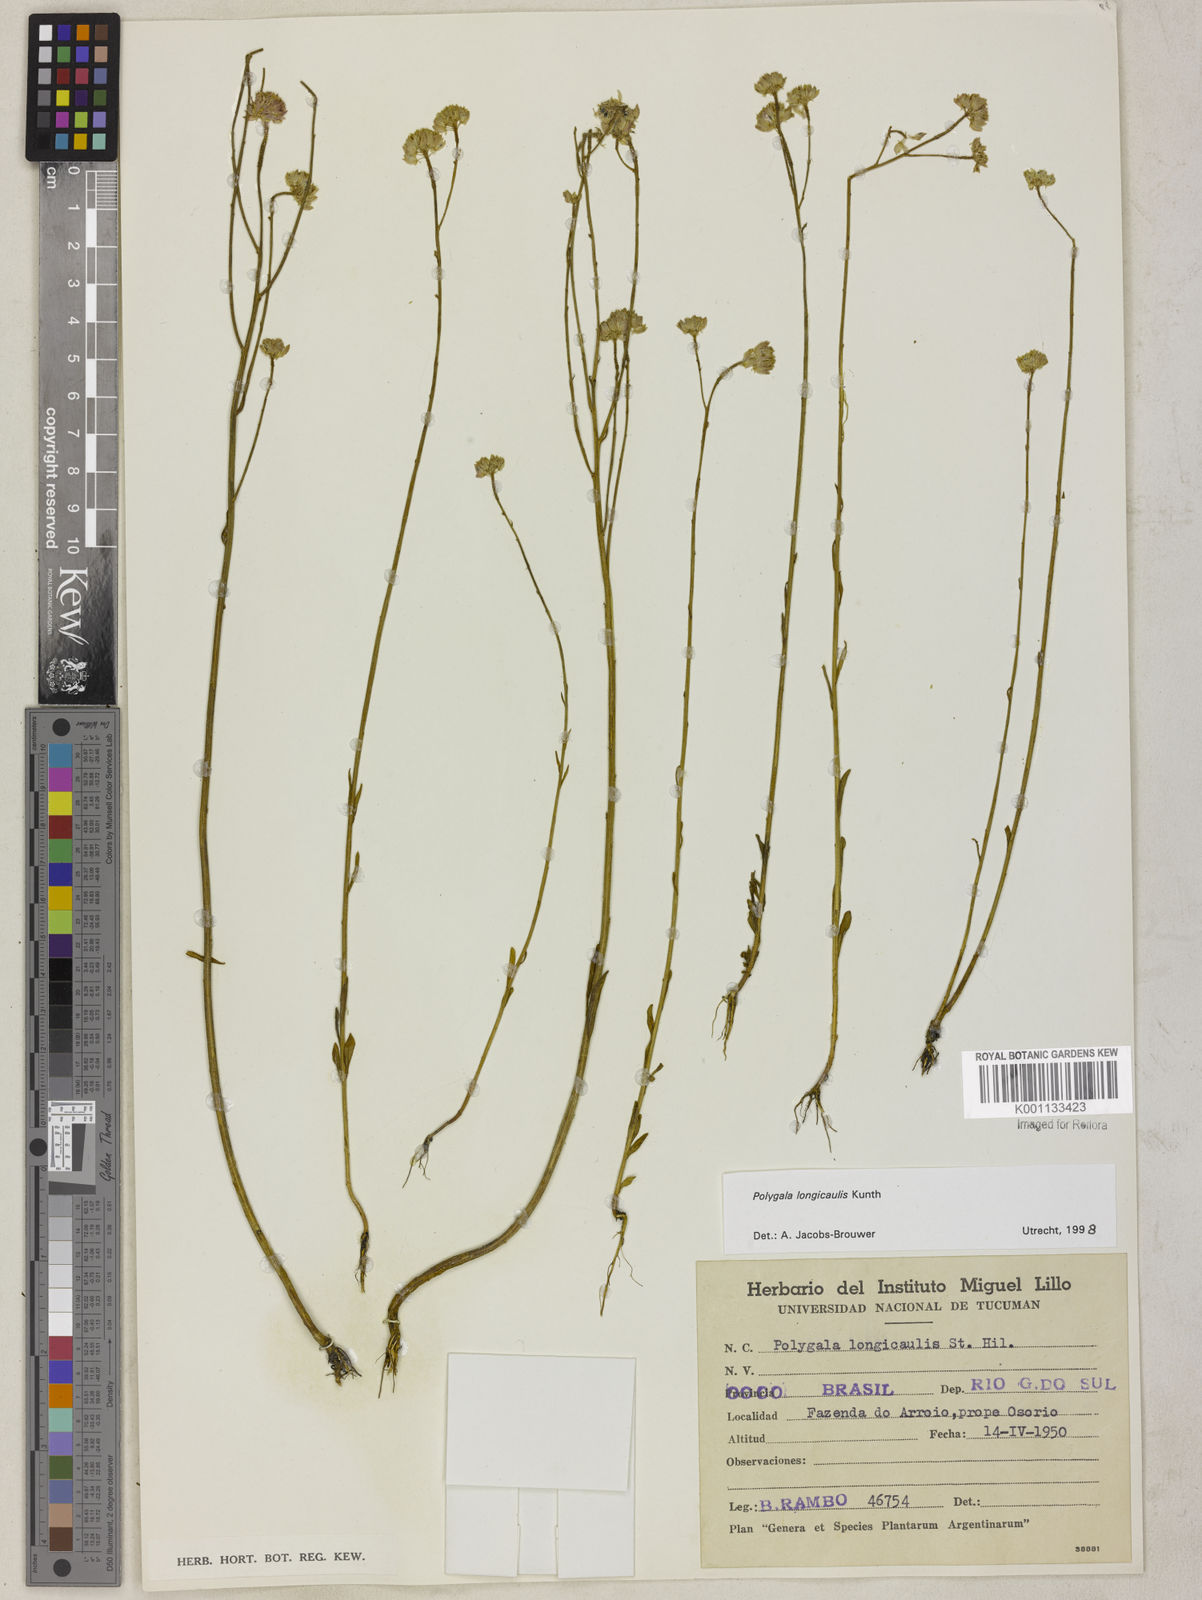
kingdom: Plantae
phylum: Tracheophyta
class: Magnoliopsida
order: Fabales
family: Polygalaceae
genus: Polygala
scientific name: Polygala longicaulis
